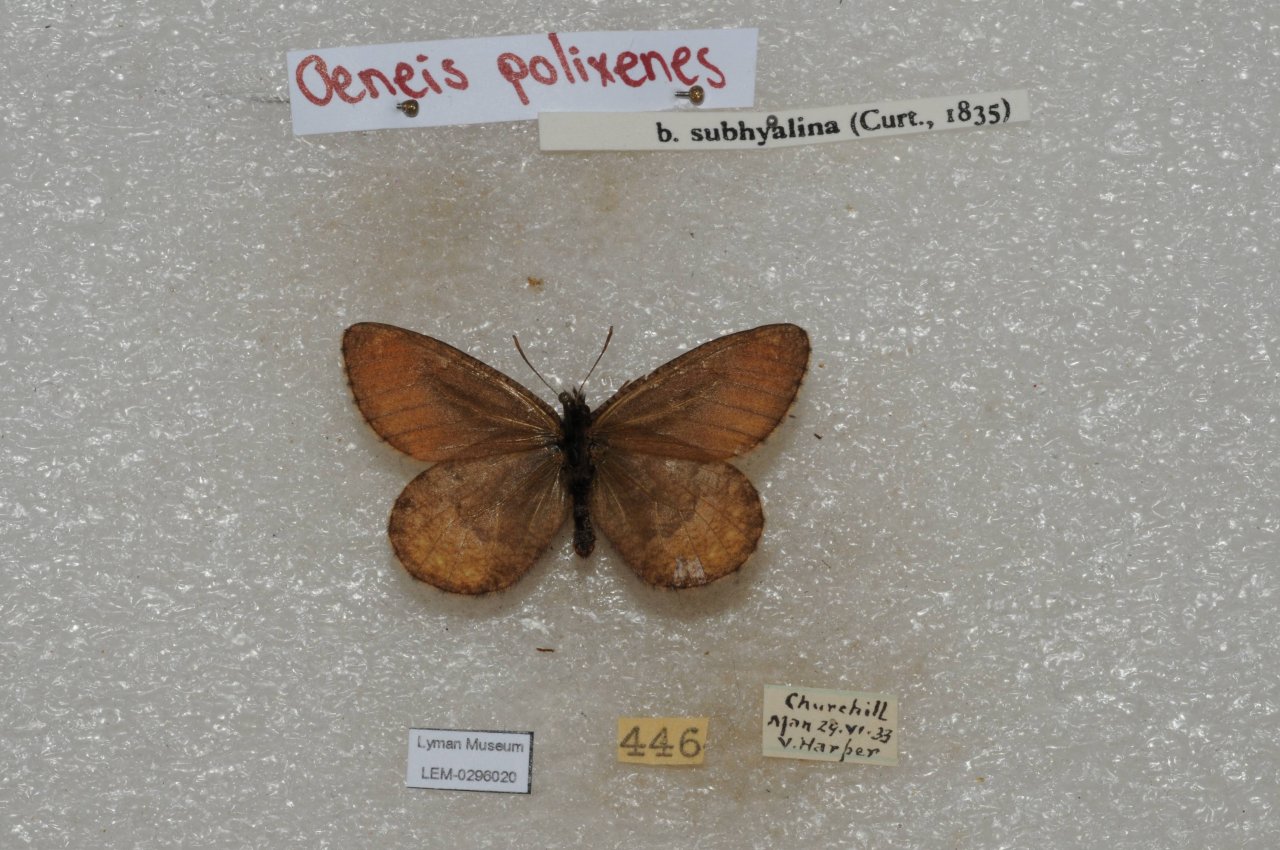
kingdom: Animalia
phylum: Arthropoda
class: Insecta
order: Lepidoptera
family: Nymphalidae
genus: Oeneis
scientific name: Oeneis bore
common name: Polixenes Arctic
